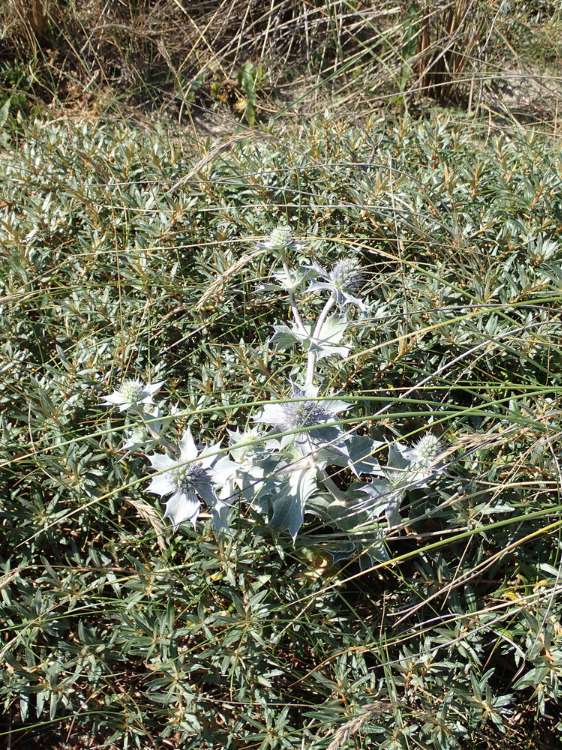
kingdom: Plantae
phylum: Tracheophyta
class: Magnoliopsida
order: Apiales
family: Apiaceae
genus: Eryngium
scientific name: Eryngium maritimum
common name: Strand-mandstro
